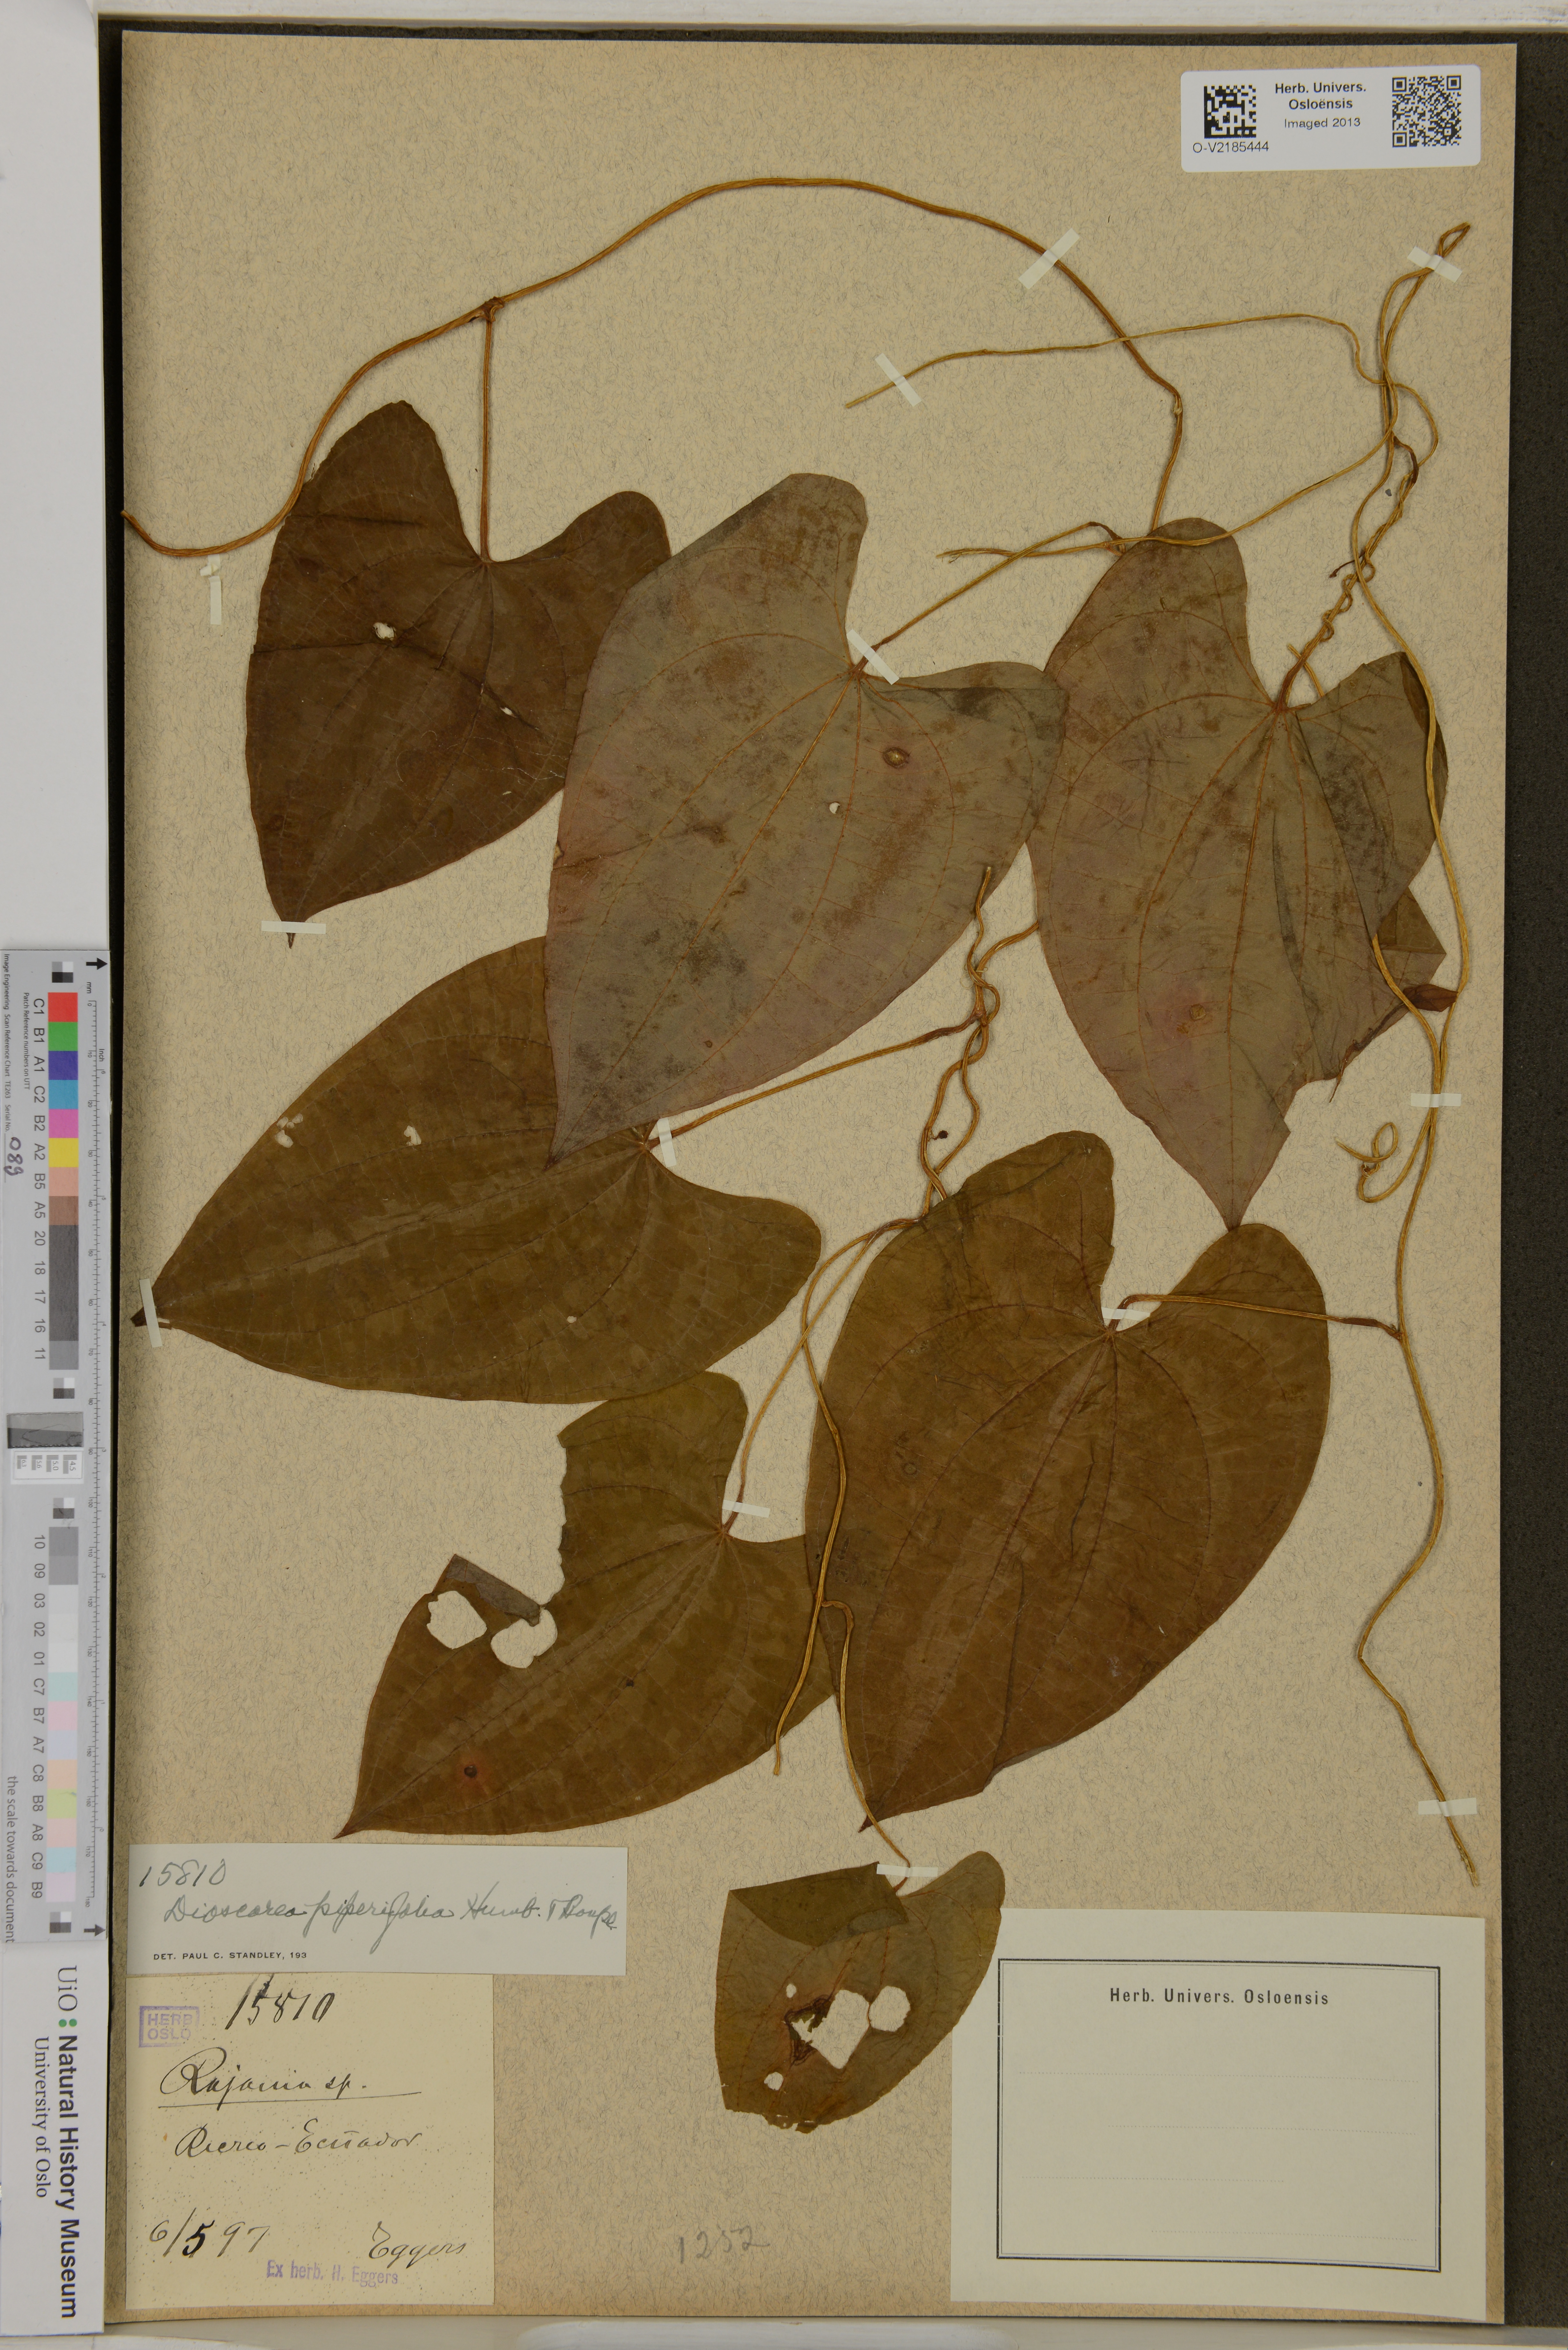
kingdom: Plantae
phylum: Tracheophyta
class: Liliopsida
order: Dioscoreales
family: Dioscoreaceae
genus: Dioscorea
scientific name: Dioscorea piperifolia
